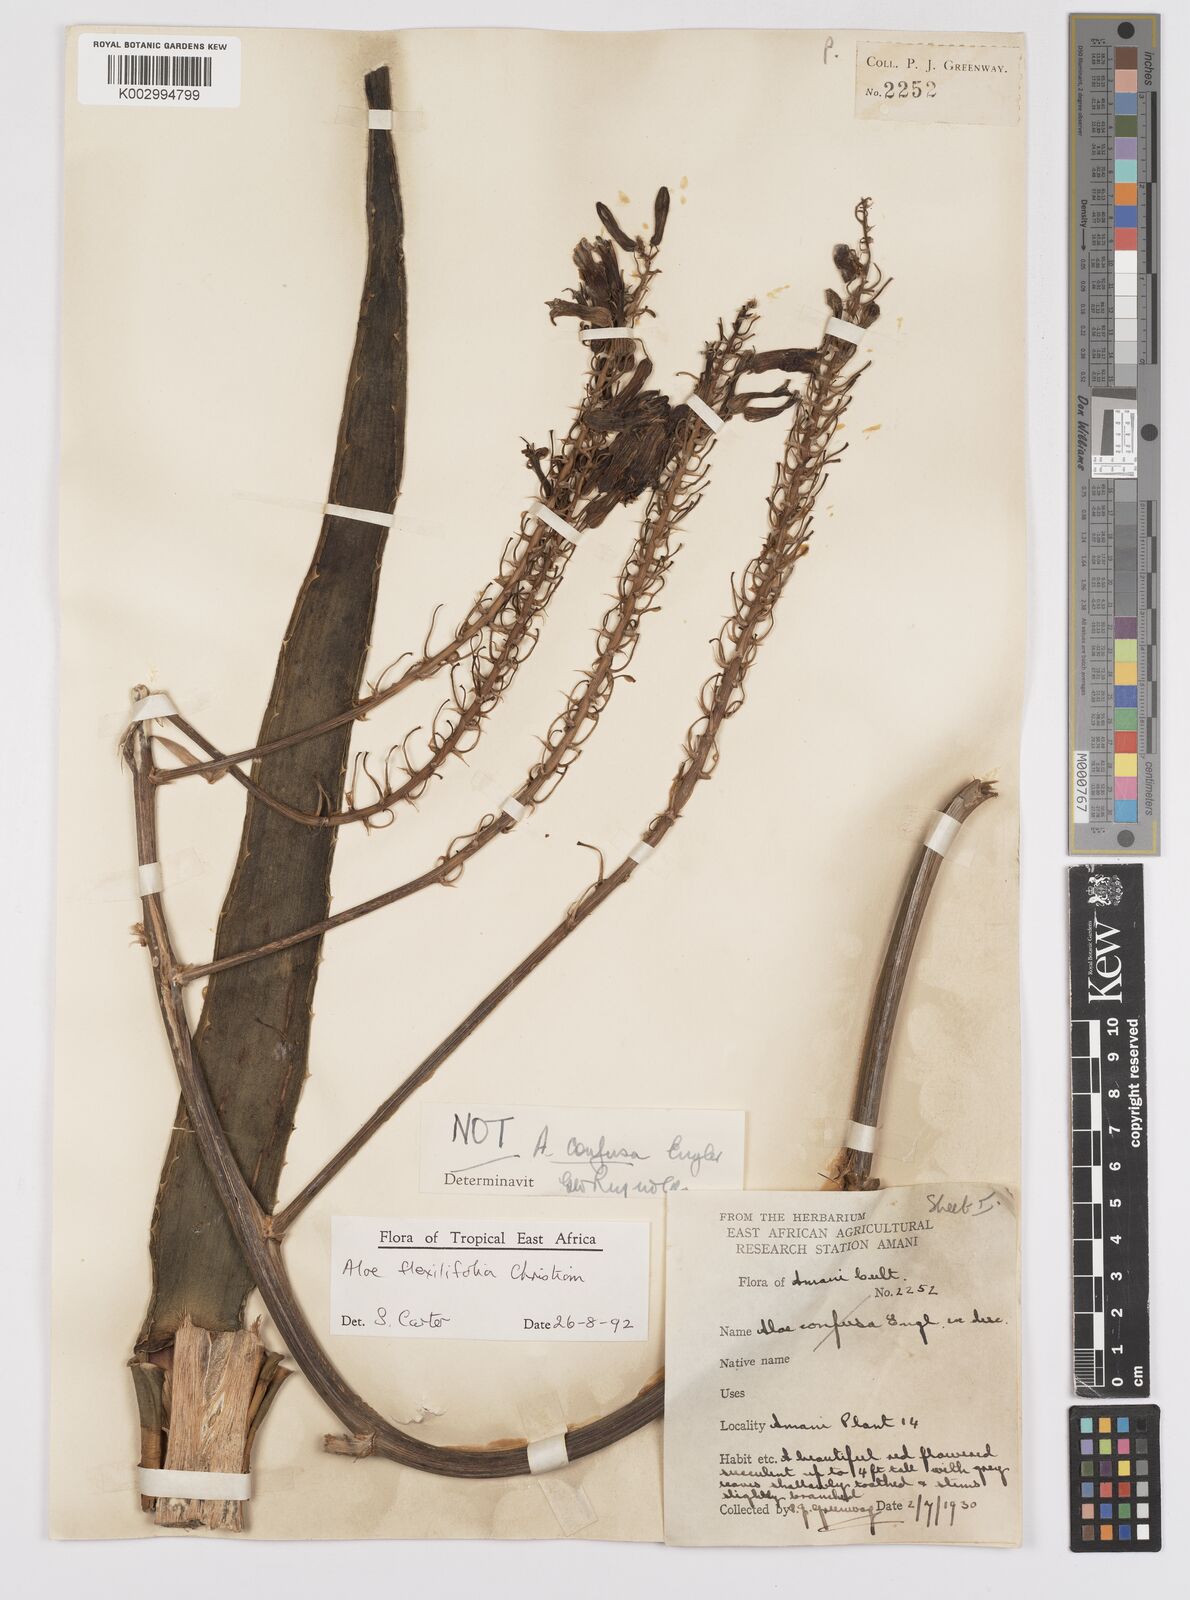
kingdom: Plantae
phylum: Tracheophyta
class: Liliopsida
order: Asparagales
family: Asphodelaceae
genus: Aloe
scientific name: Aloe flexilifolia
